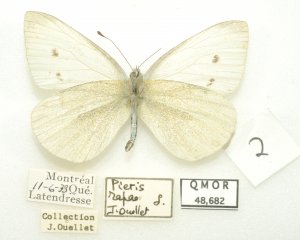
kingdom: Animalia
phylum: Arthropoda
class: Insecta
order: Lepidoptera
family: Pieridae
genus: Pieris
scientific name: Pieris rapae
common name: Cabbage White
